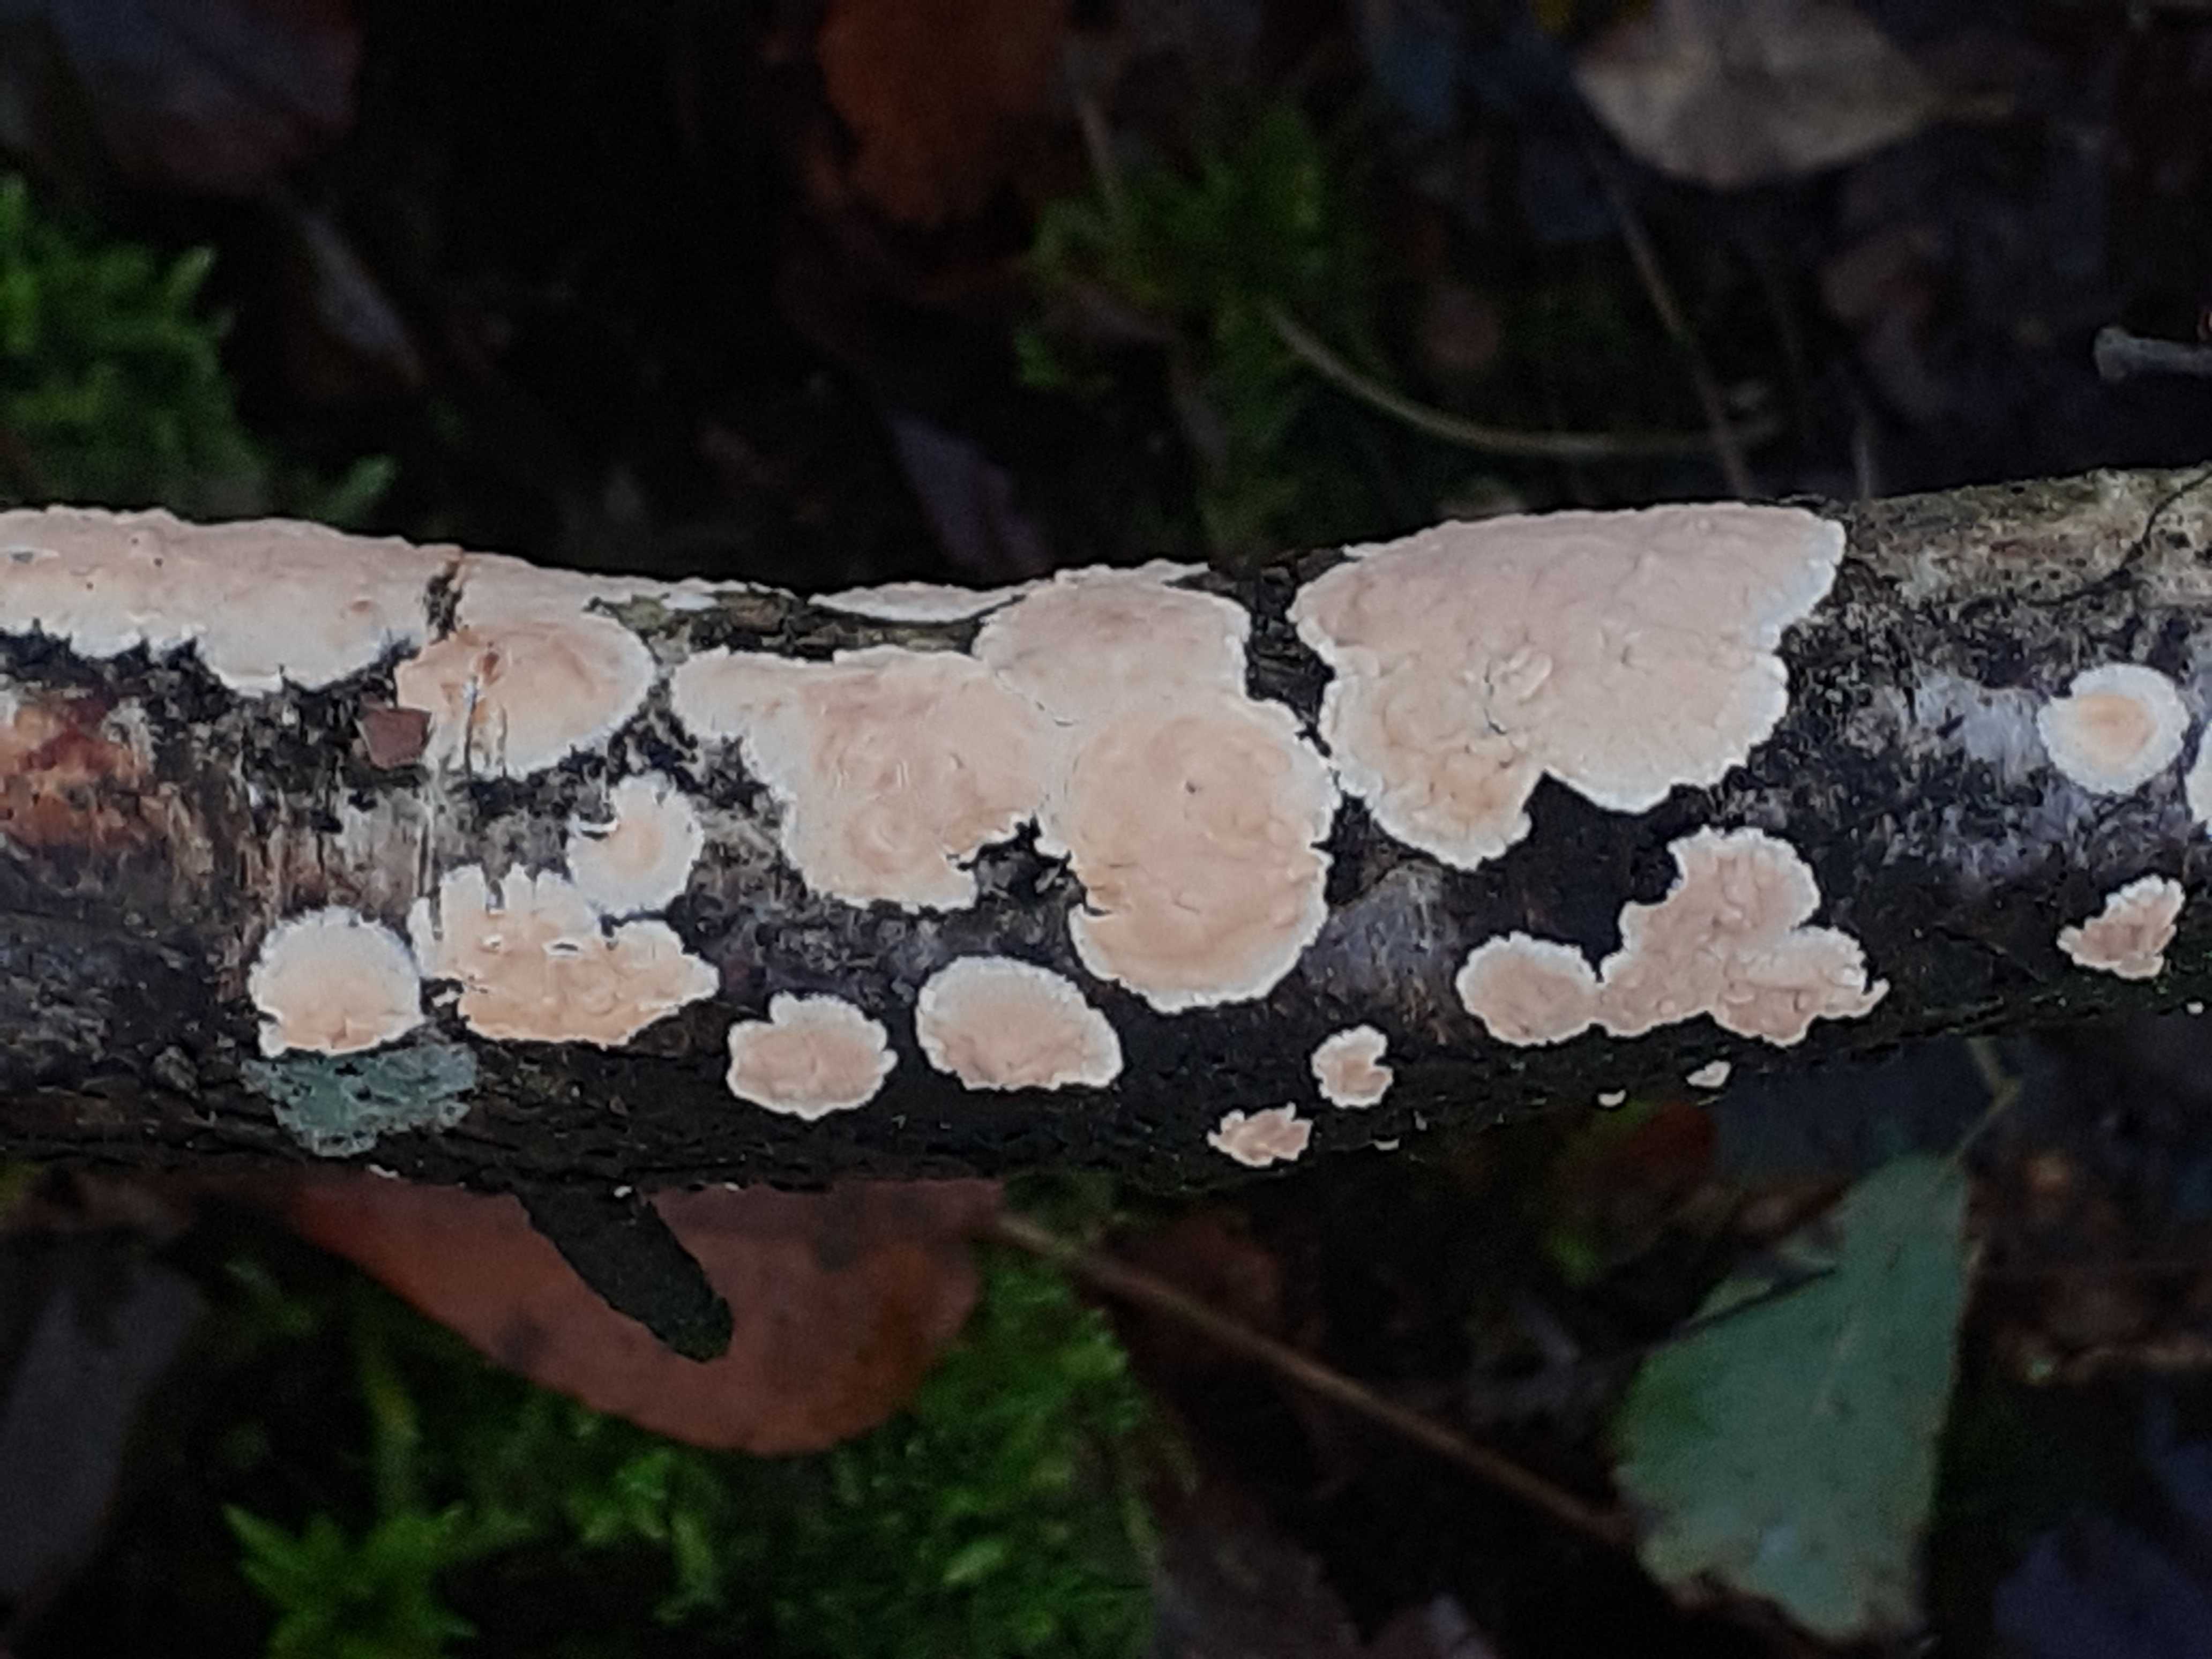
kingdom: Fungi
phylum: Basidiomycota
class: Agaricomycetes
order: Agaricales
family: Physalacriaceae
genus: Cylindrobasidium
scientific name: Cylindrobasidium evolvens
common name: sprækkehinde
